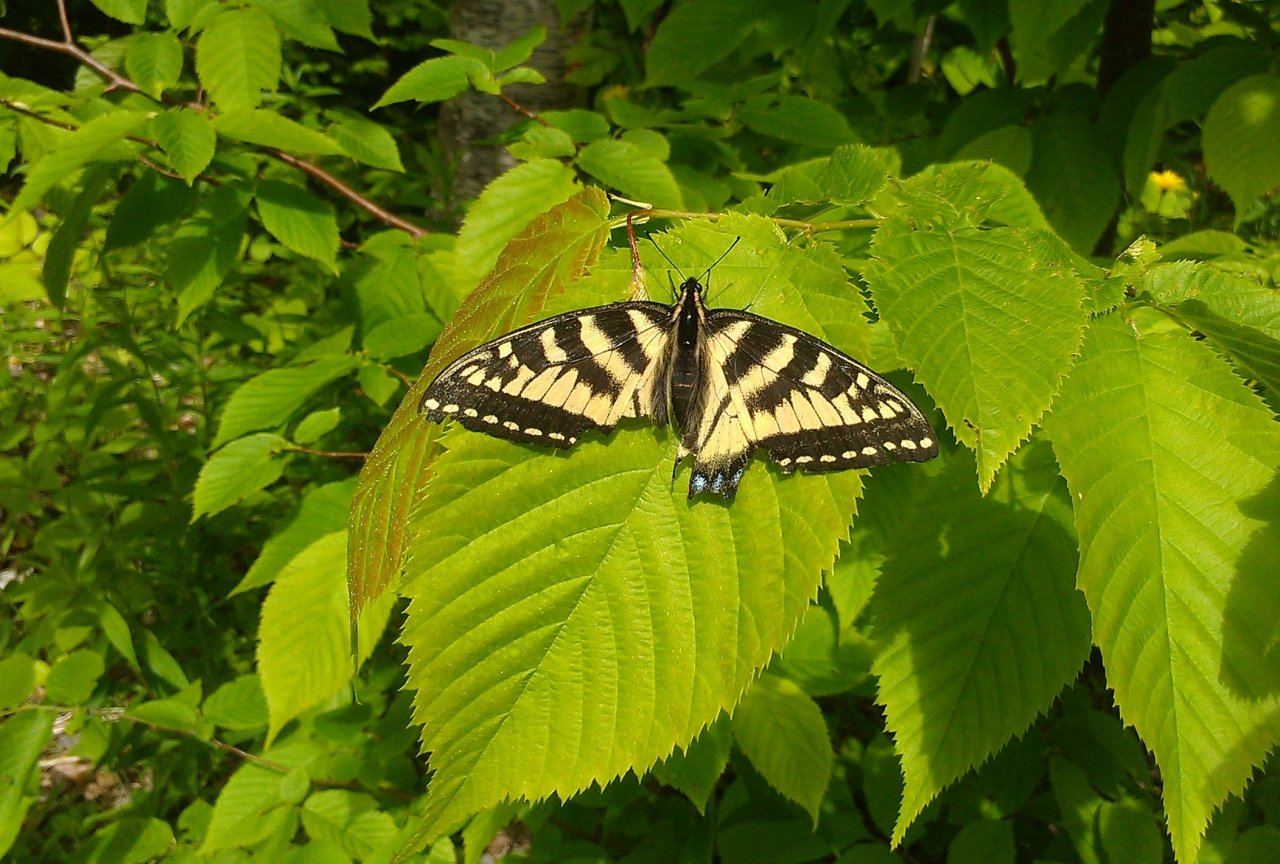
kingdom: Animalia
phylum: Arthropoda
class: Insecta
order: Lepidoptera
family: Papilionidae
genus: Pterourus
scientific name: Pterourus canadensis
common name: Canadian Tiger Swallowtail
